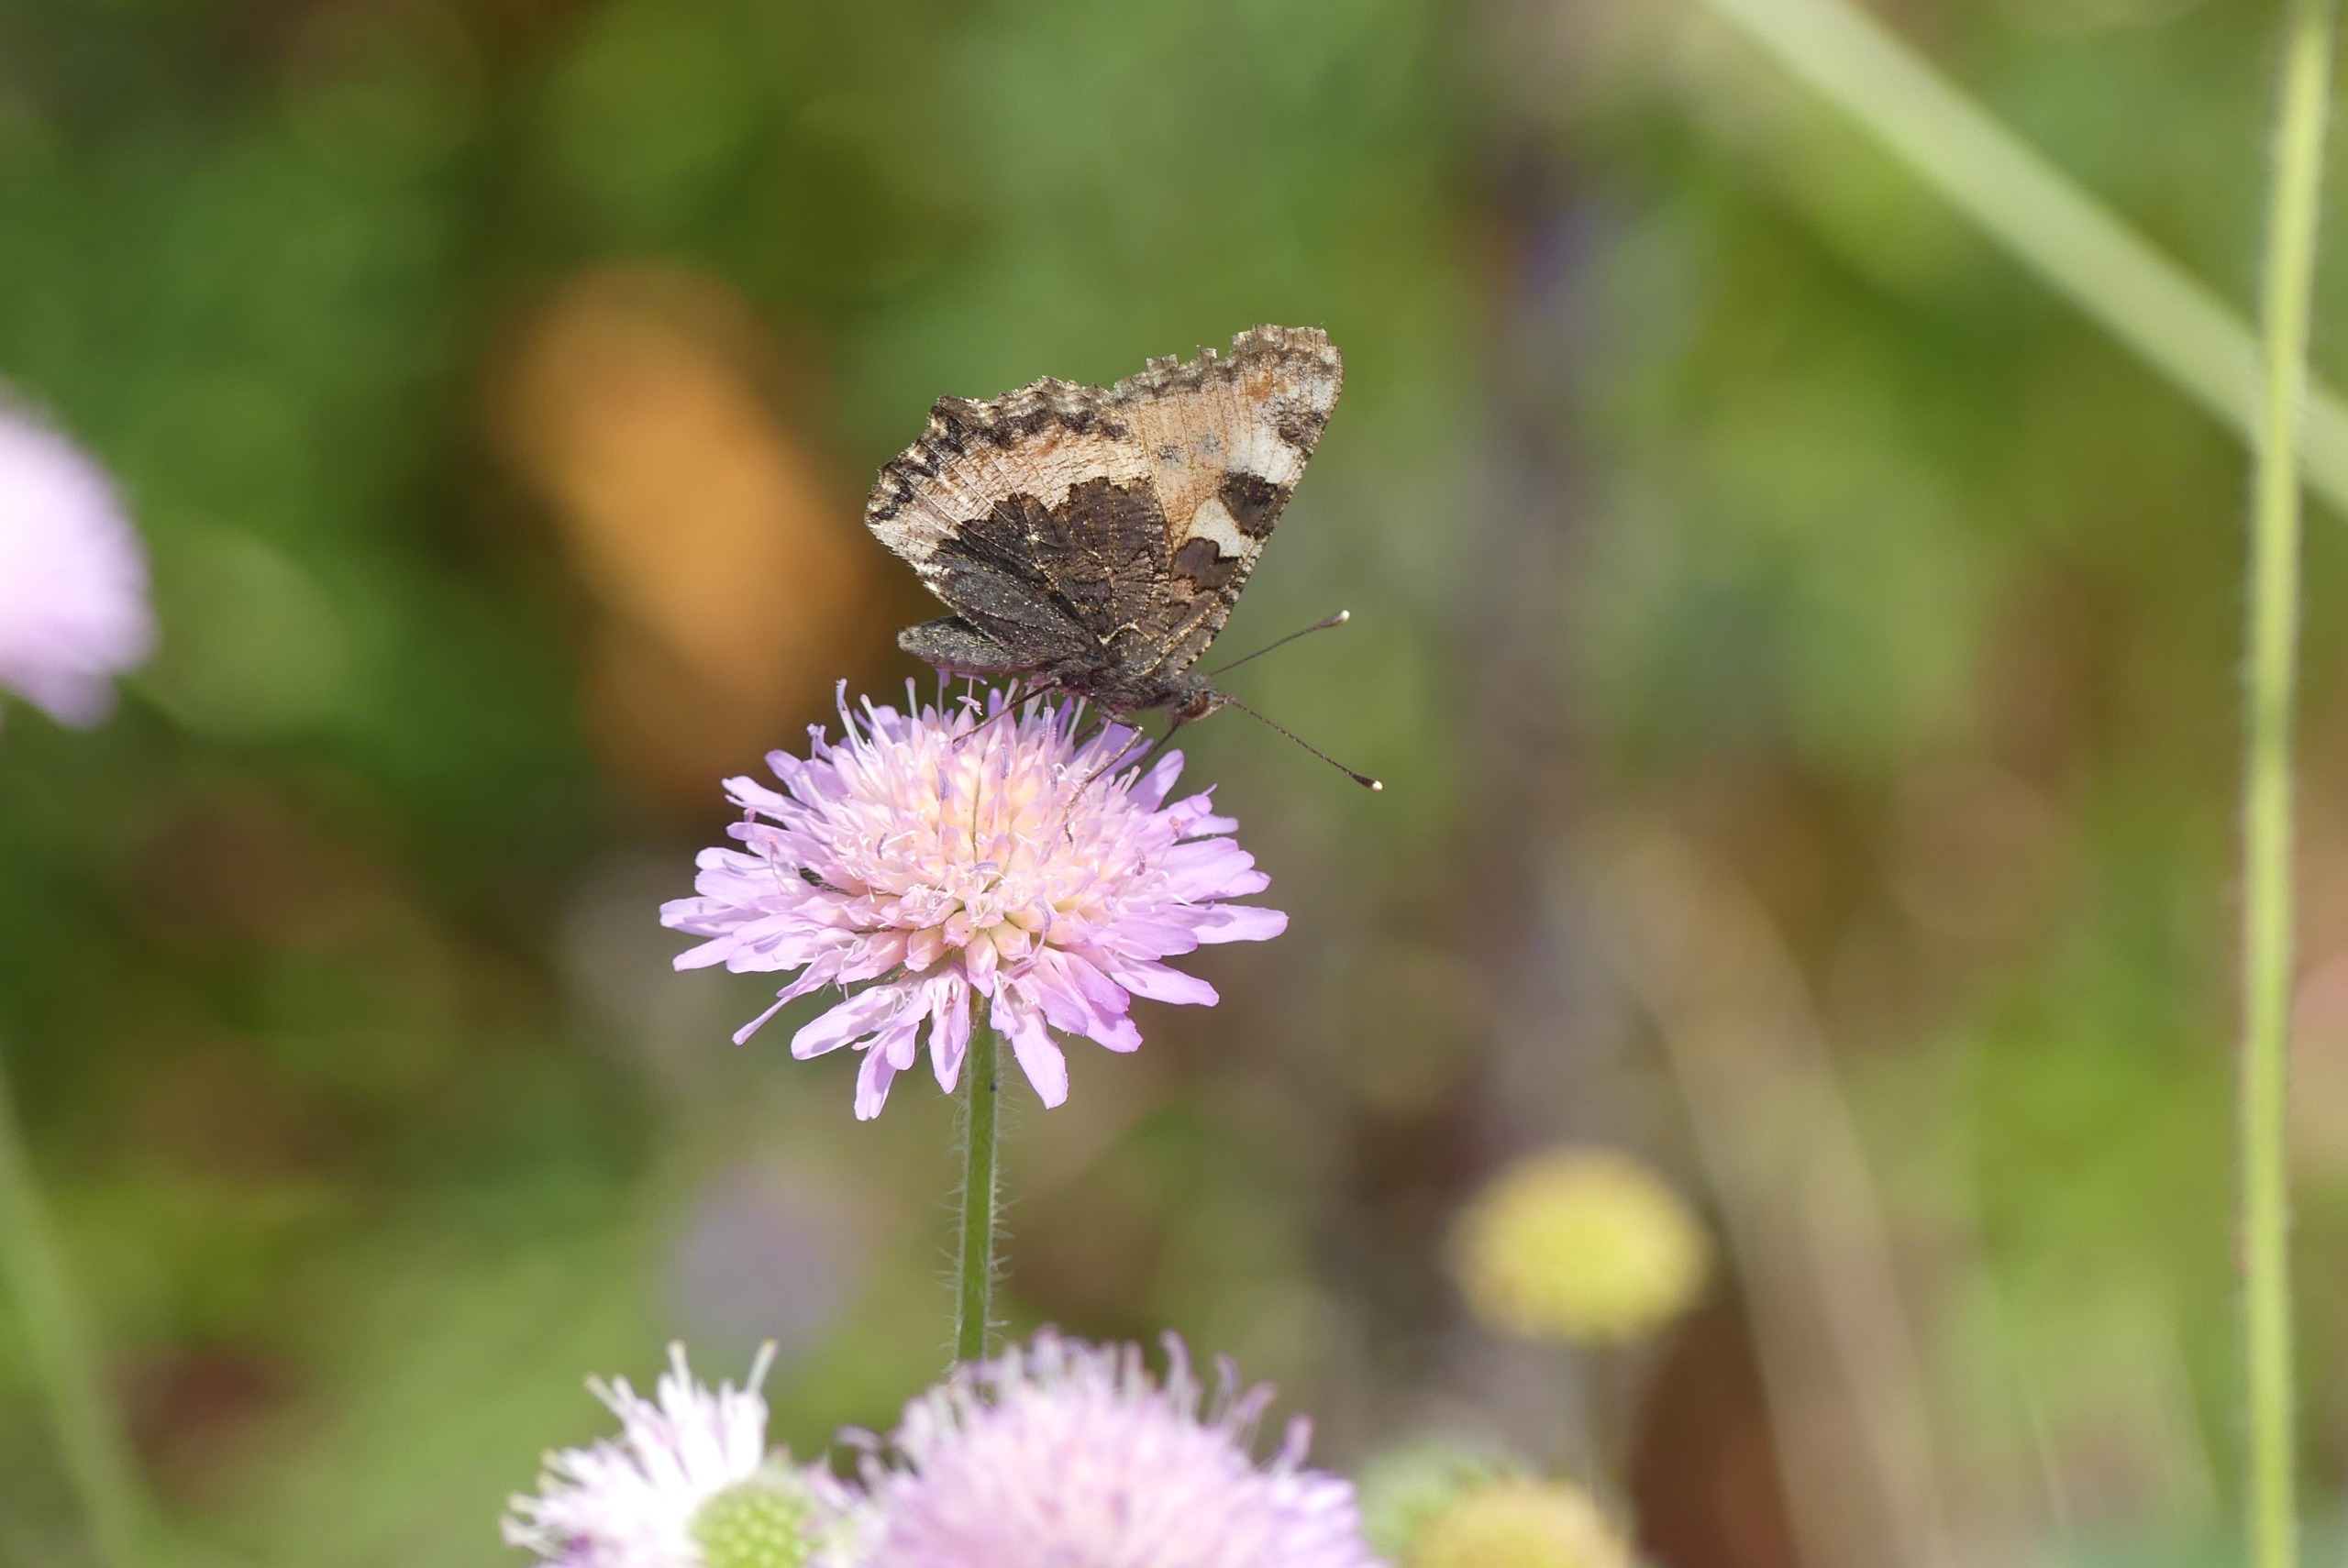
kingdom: Animalia
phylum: Arthropoda
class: Insecta
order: Lepidoptera
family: Nymphalidae
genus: Aglais
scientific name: Aglais urticae
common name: Nældens takvinge
